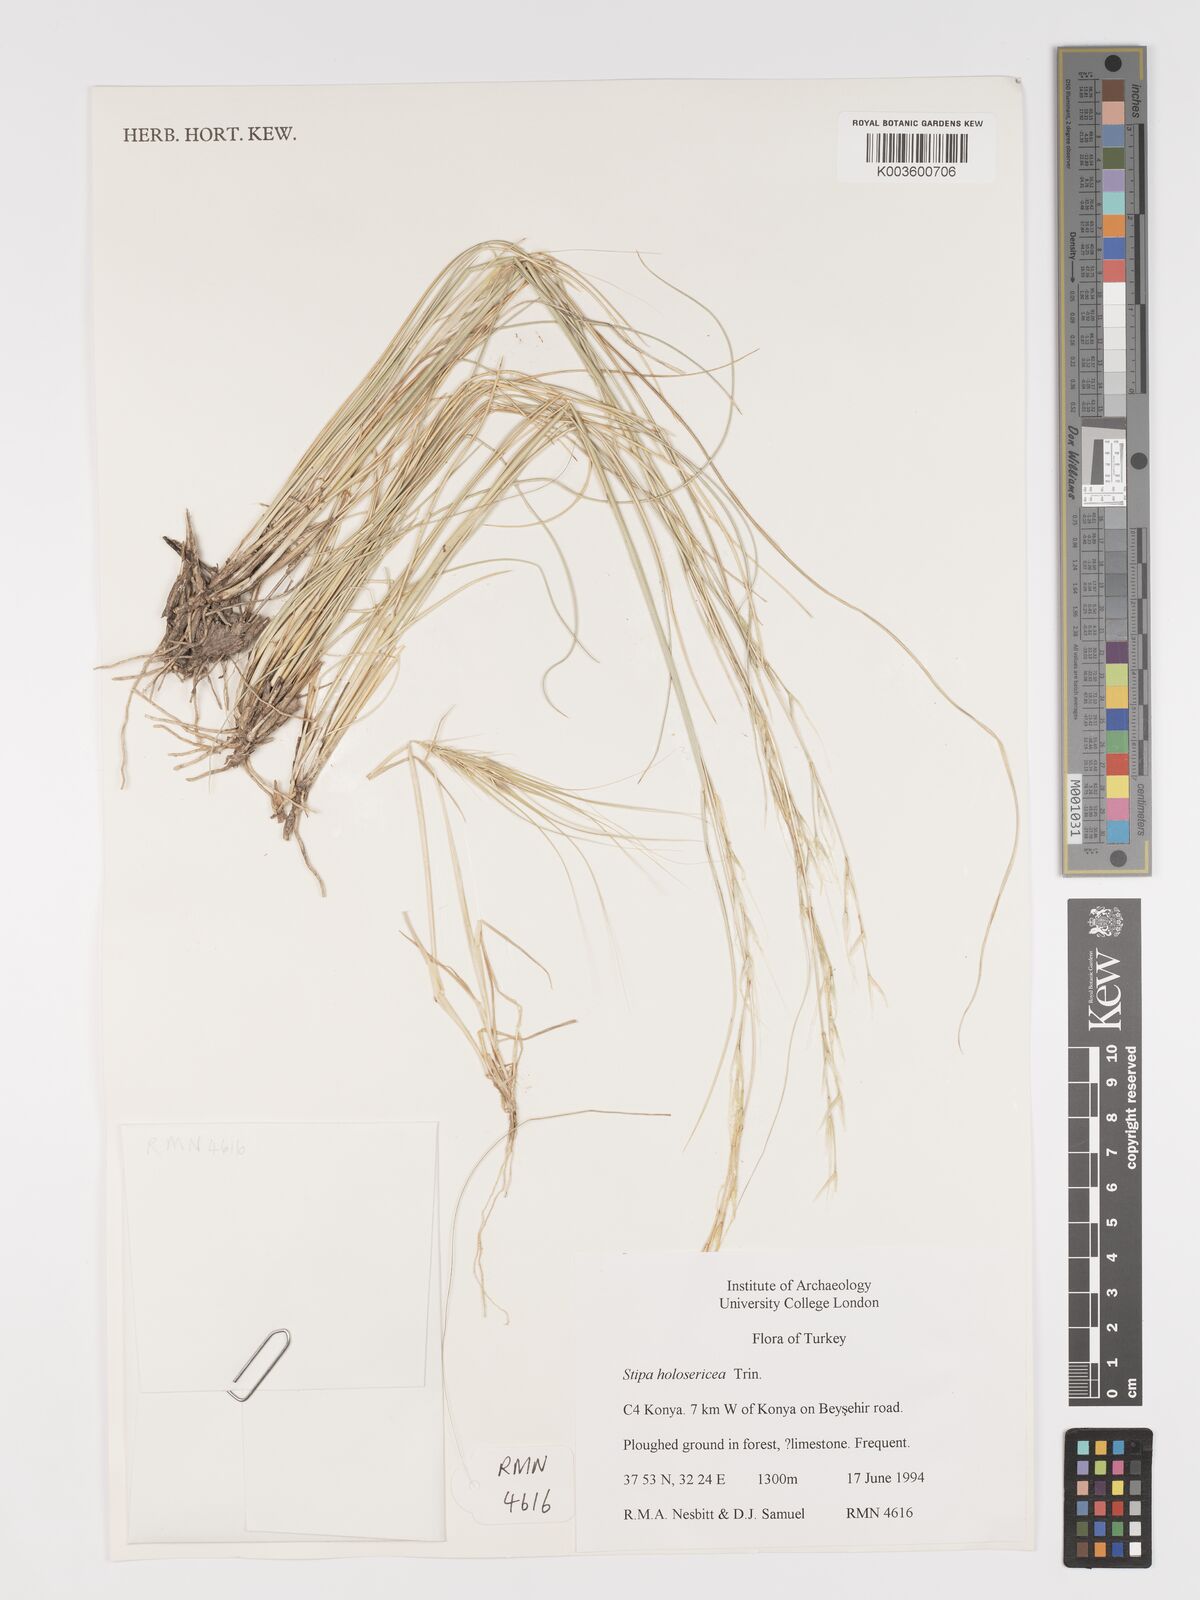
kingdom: Plantae
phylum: Tracheophyta
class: Liliopsida
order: Poales
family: Poaceae
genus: Stipa
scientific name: Stipa holosericea
